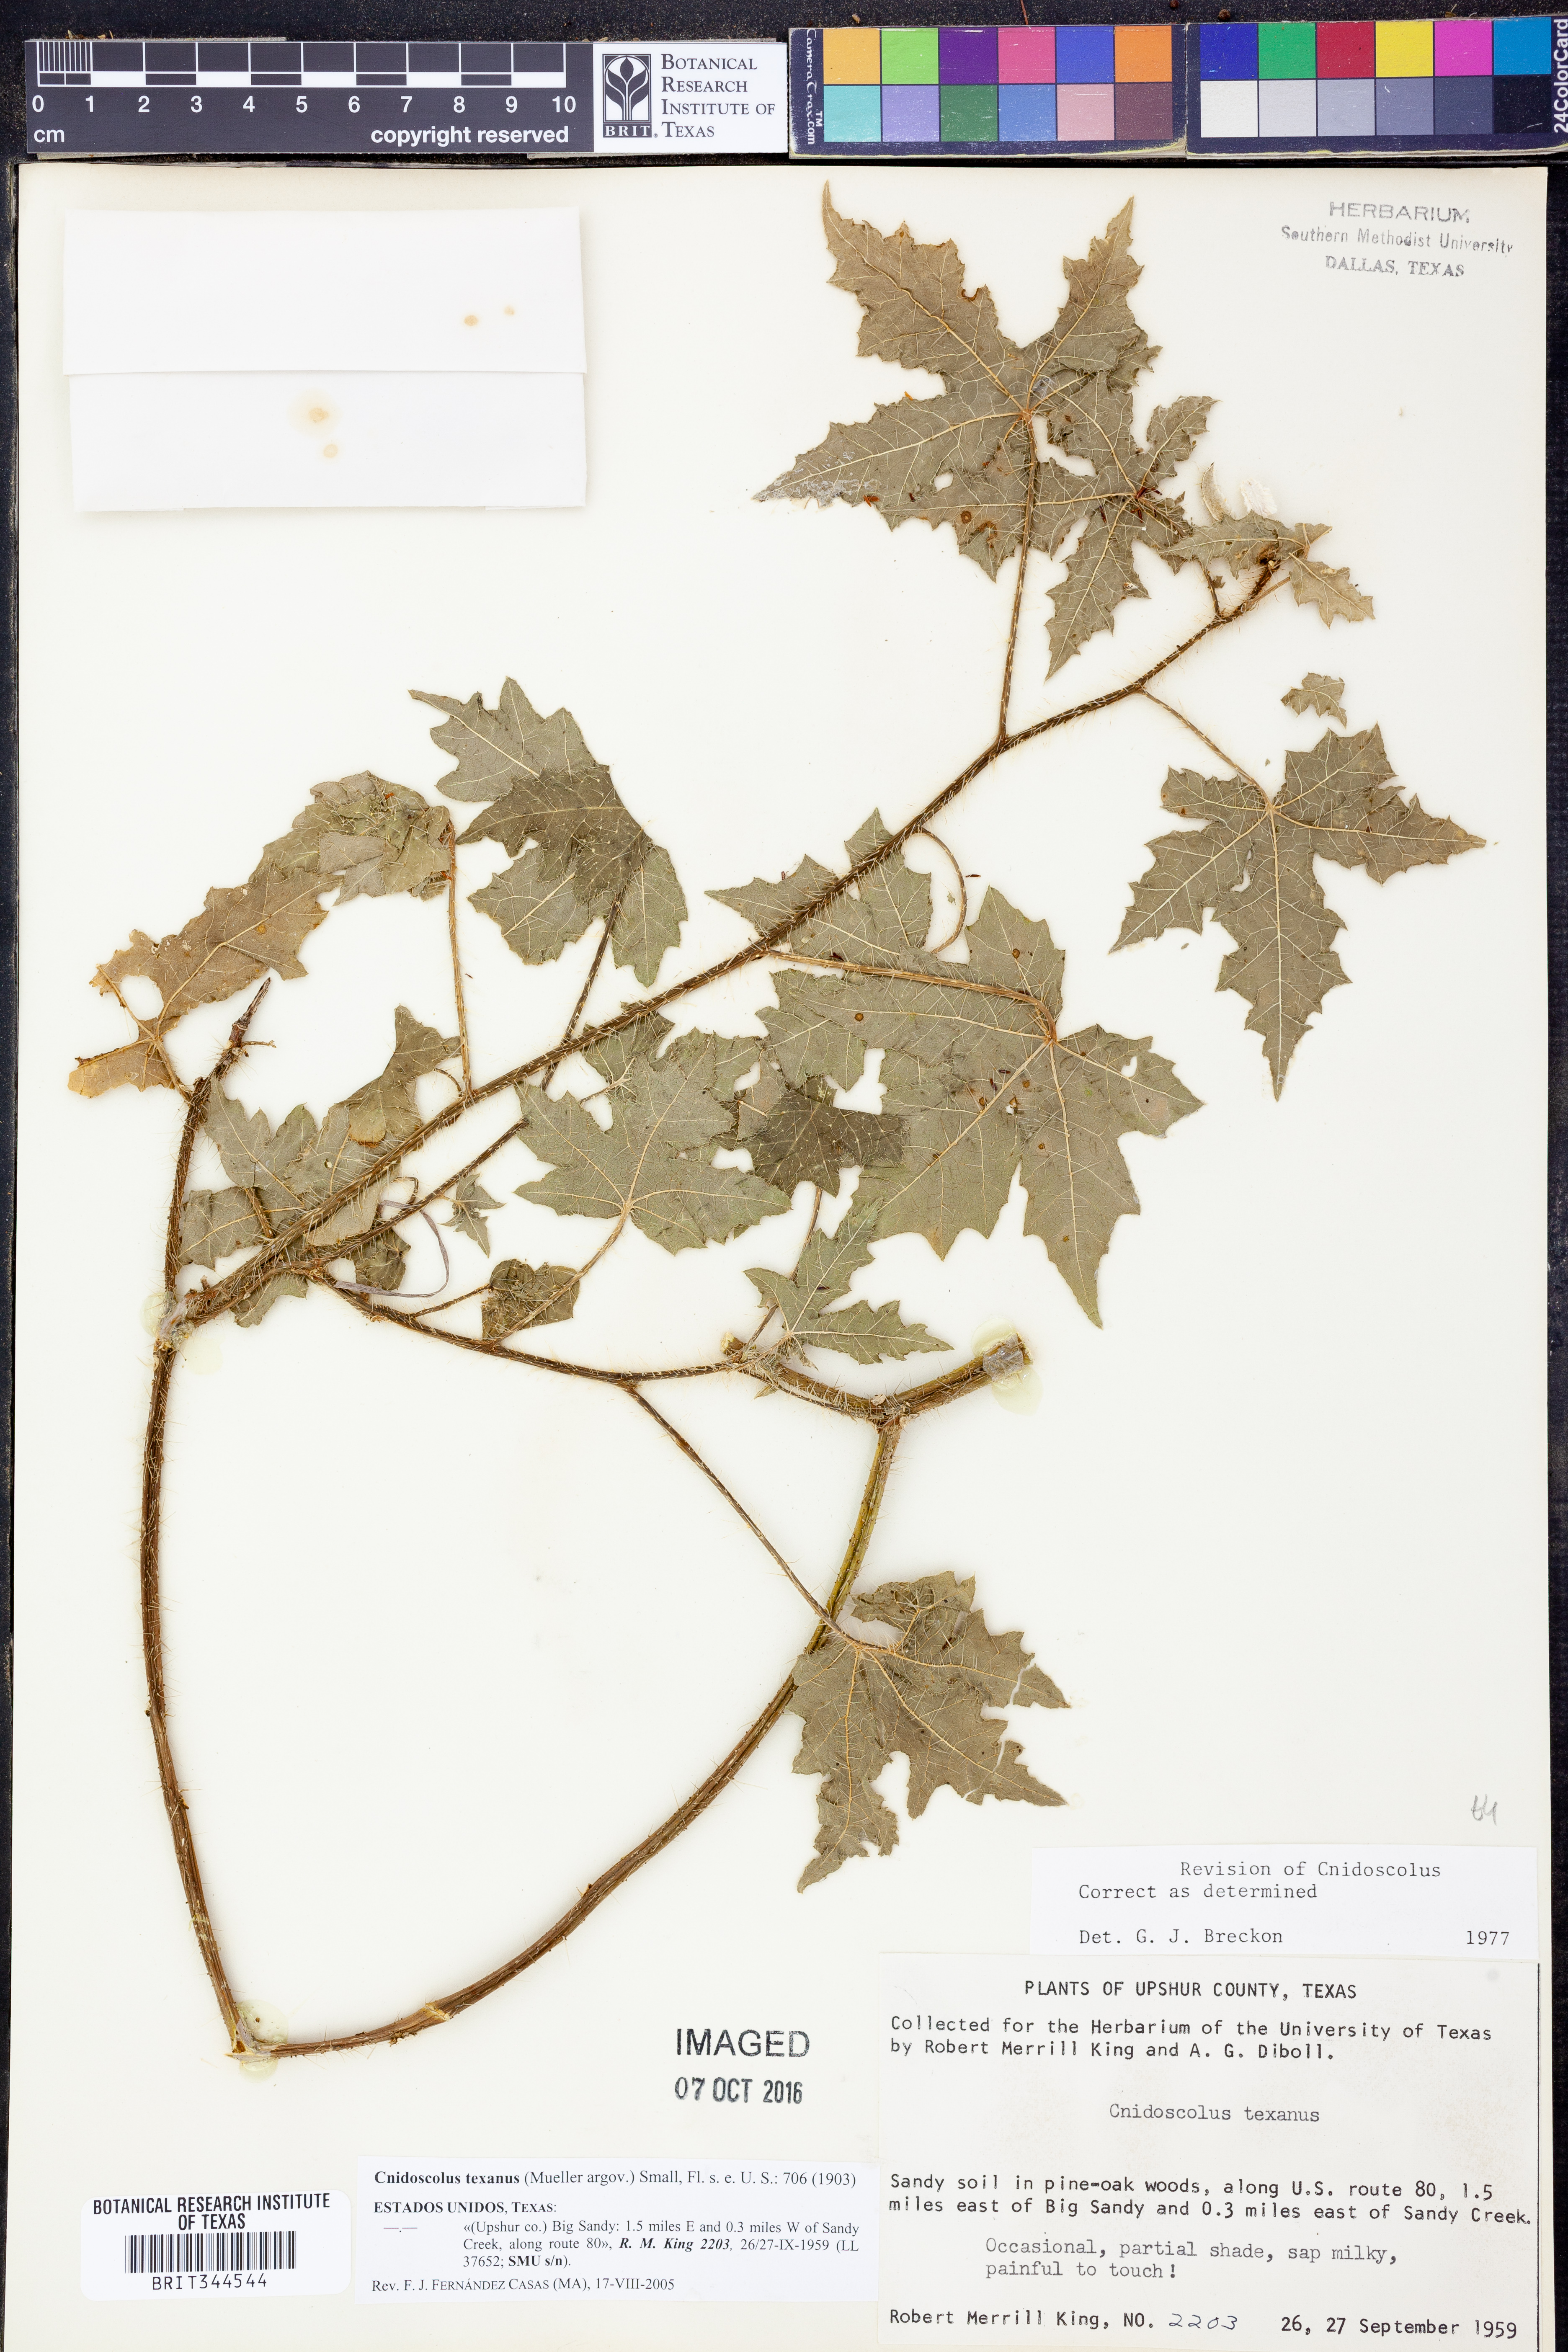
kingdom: Plantae
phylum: Tracheophyta
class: Magnoliopsida
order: Malpighiales
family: Euphorbiaceae
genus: Cnidoscolus
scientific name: Cnidoscolus texanus
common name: Texas bull-nettle
